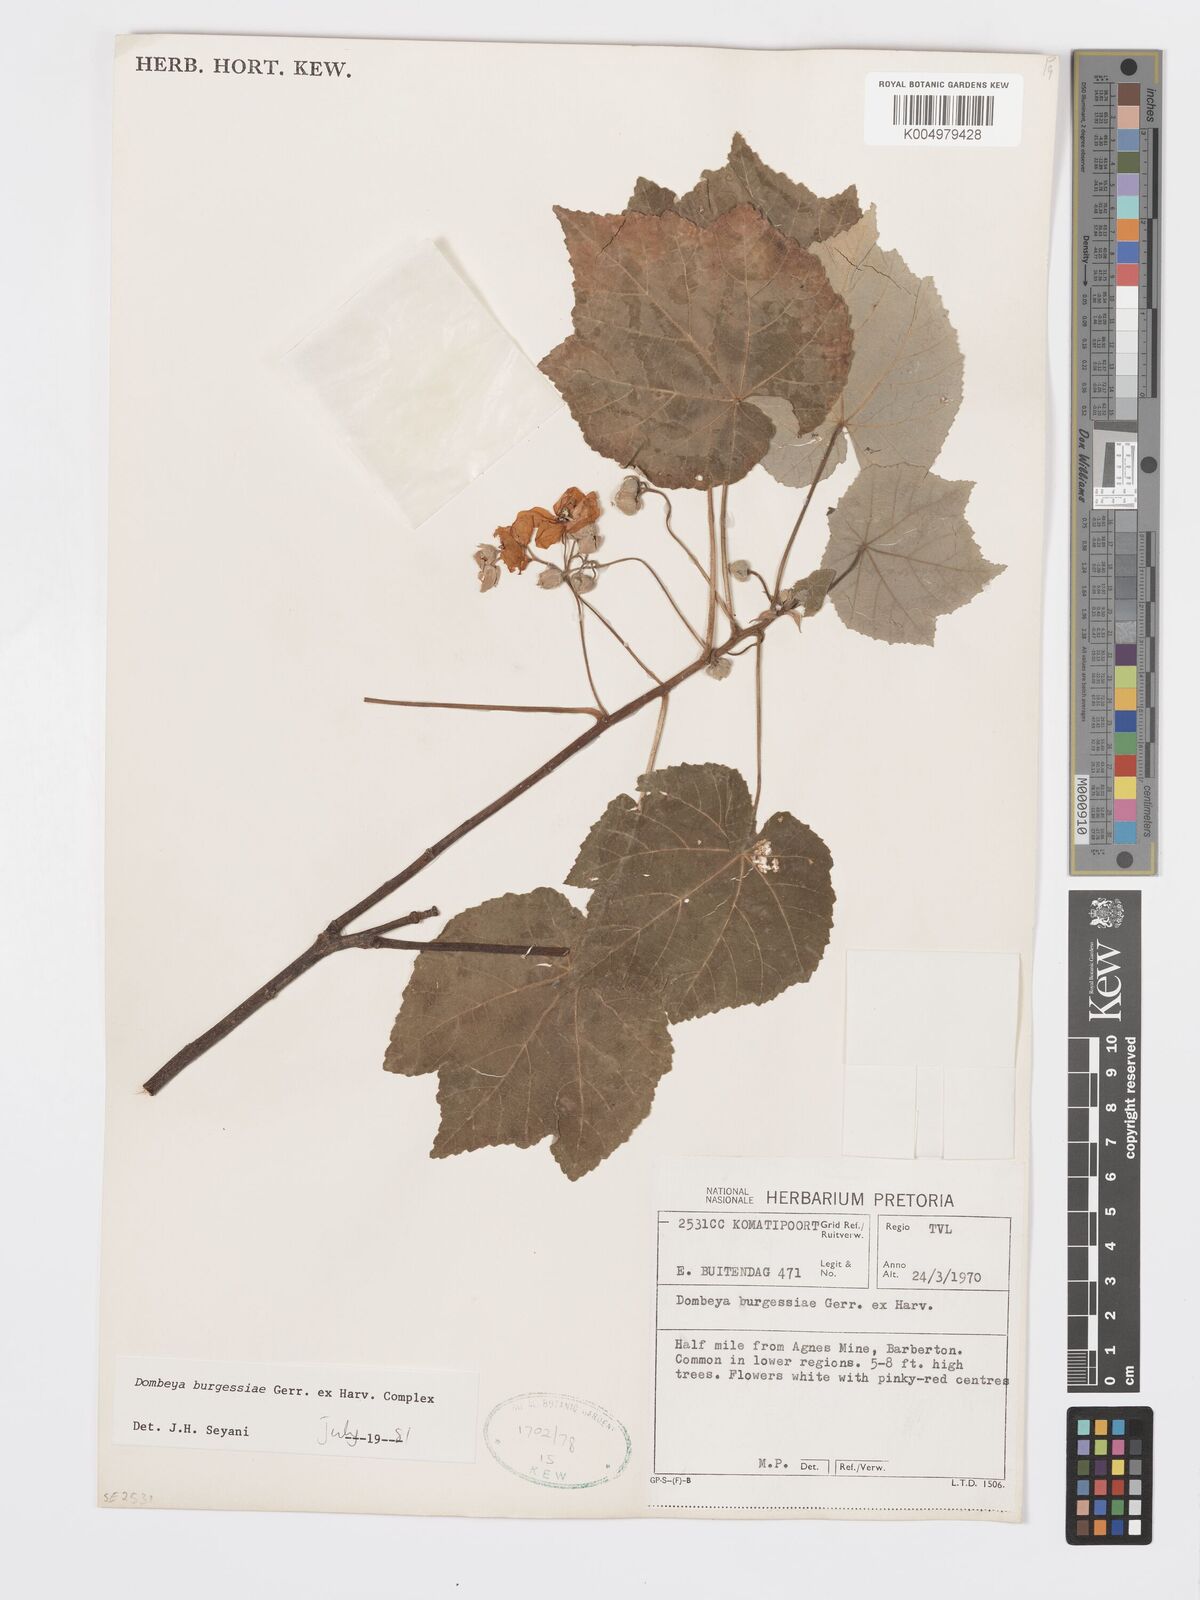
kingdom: Plantae
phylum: Tracheophyta
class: Magnoliopsida
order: Malvales
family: Malvaceae
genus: Dombeya
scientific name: Dombeya burgessiae
